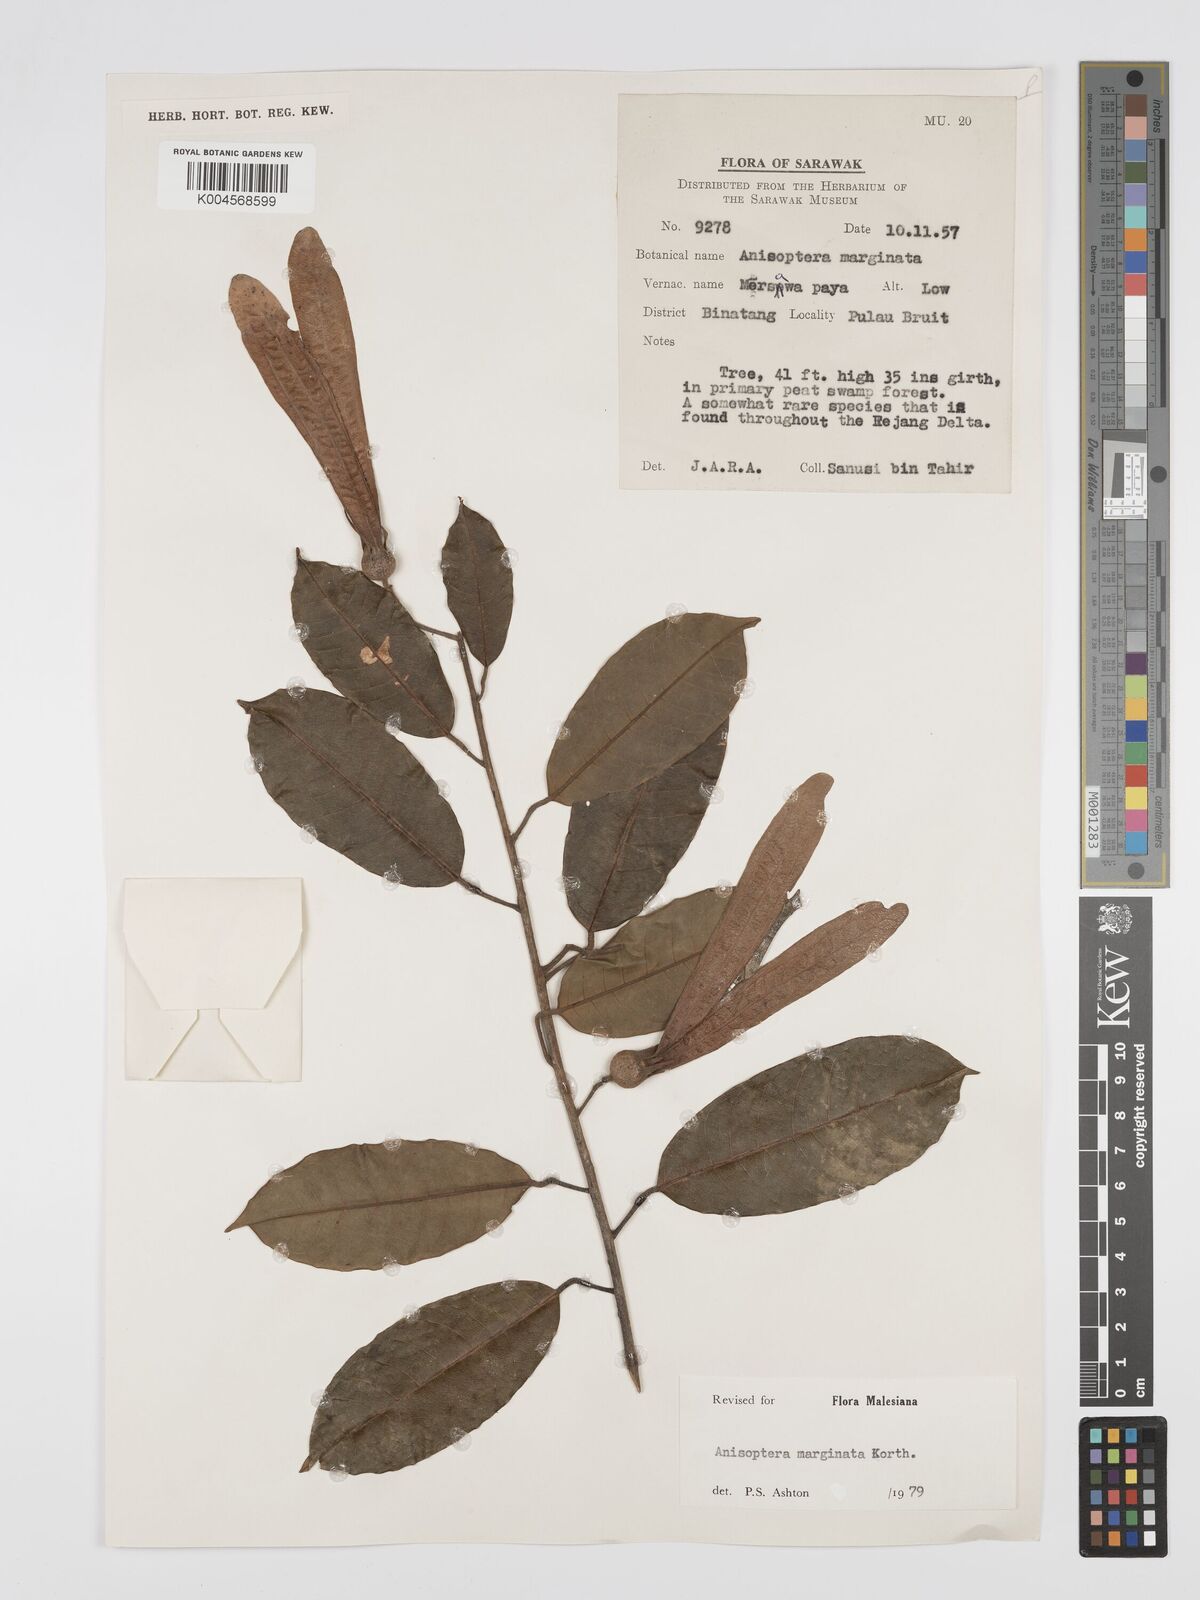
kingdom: Plantae
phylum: Tracheophyta
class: Magnoliopsida
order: Malvales
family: Dipterocarpaceae
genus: Anisoptera
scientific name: Anisoptera marginata
